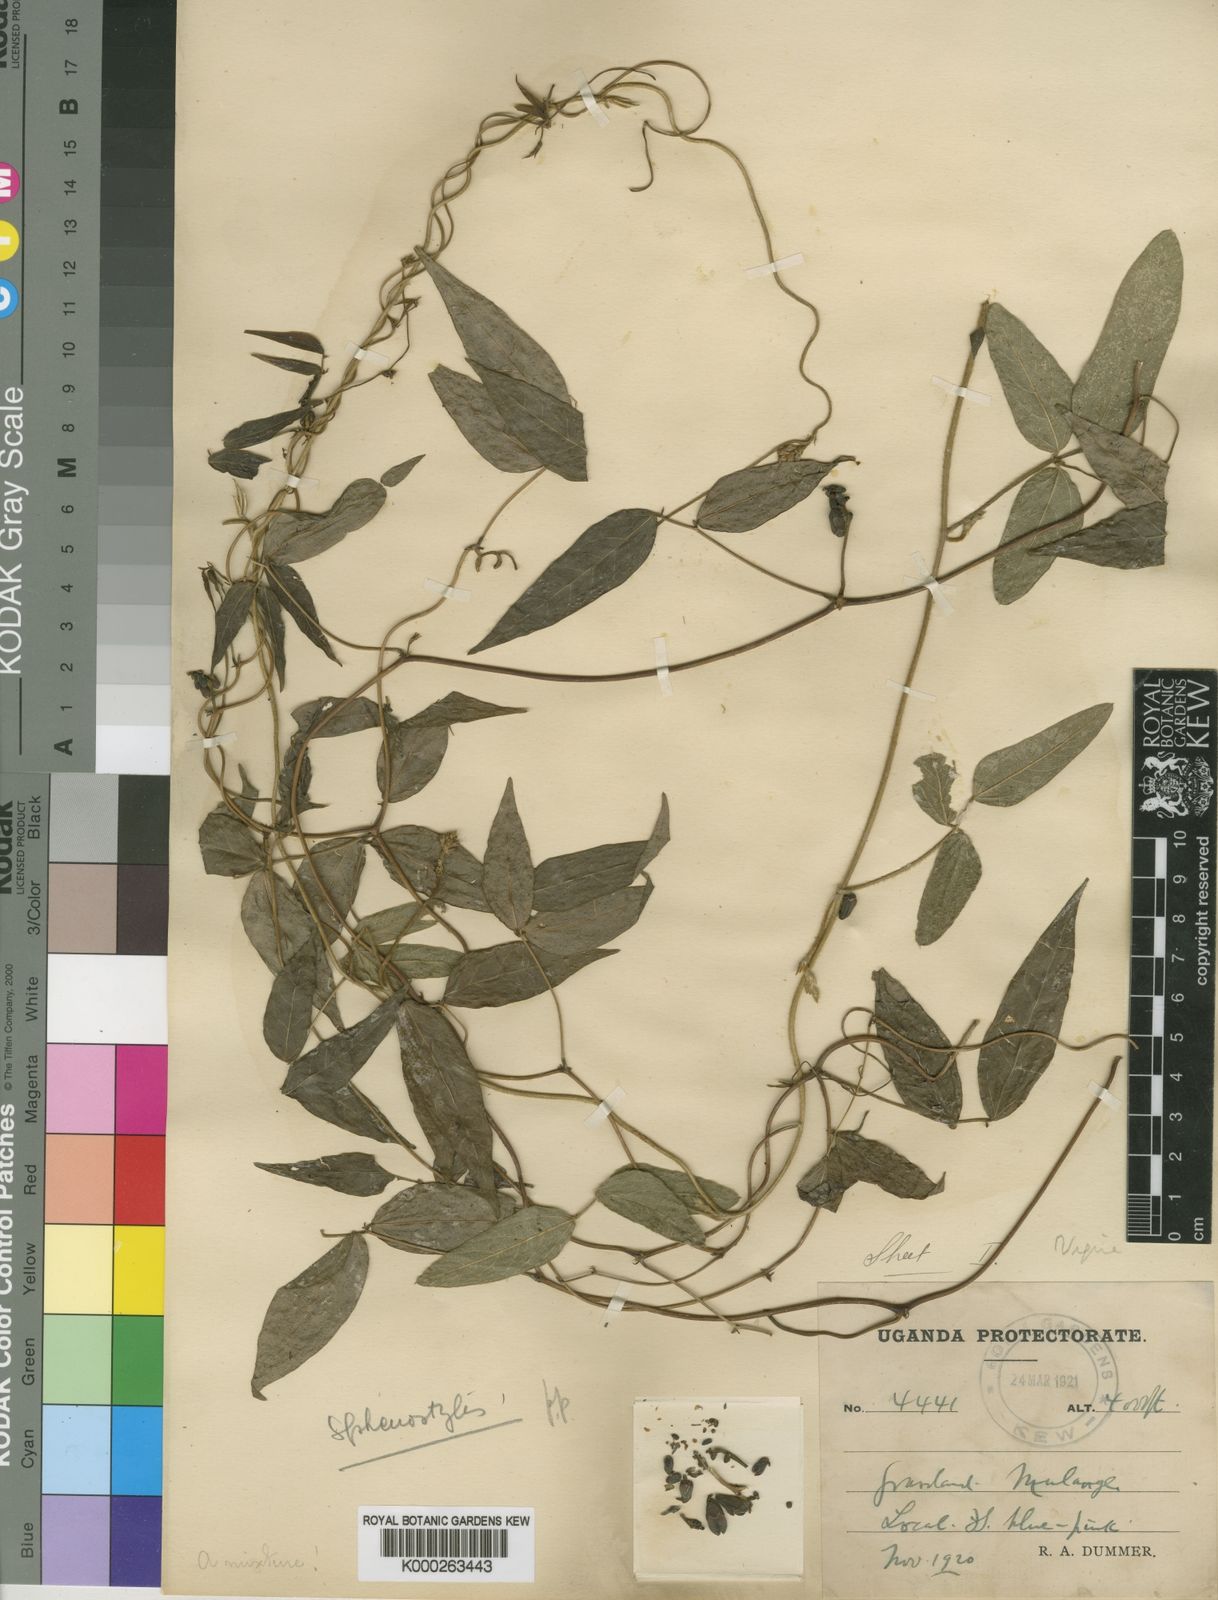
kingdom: Plantae
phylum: Tracheophyta
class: Magnoliopsida
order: Fabales
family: Fabaceae
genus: Vigna
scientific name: Vigna ambacensis
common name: Tsarkiyan zomo
